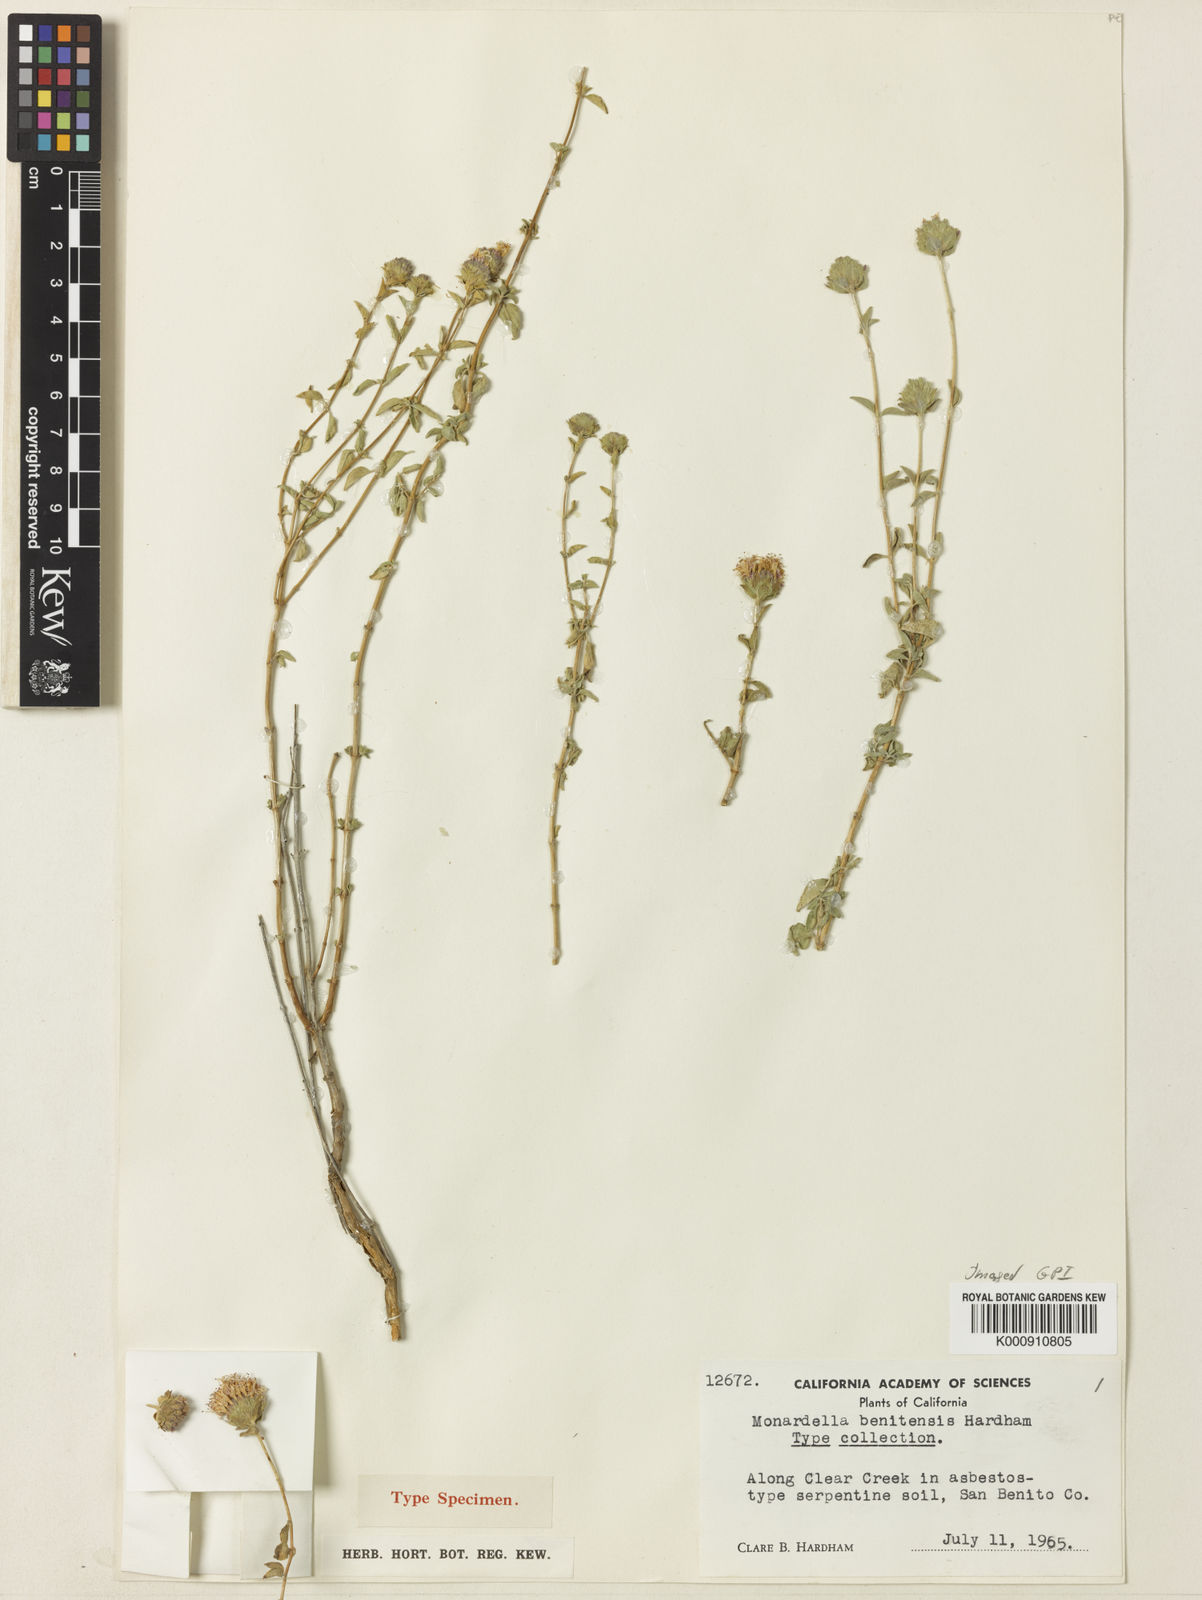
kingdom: Plantae
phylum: Tracheophyta
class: Magnoliopsida
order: Lamiales
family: Lamiaceae
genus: Monardella
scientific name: Monardella odoratissima
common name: Pacific monardella
